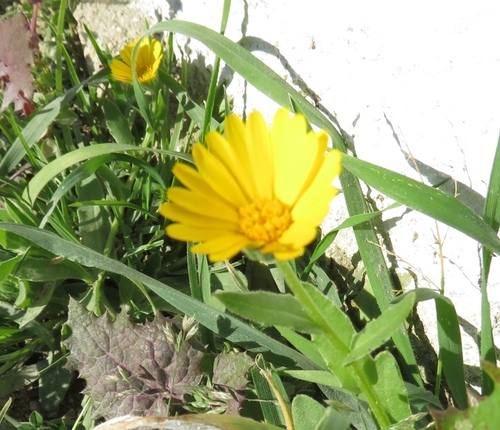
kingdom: Plantae
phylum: Tracheophyta
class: Magnoliopsida
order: Asterales
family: Asteraceae
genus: Calendula
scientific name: Calendula arvensis
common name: Field marigold
